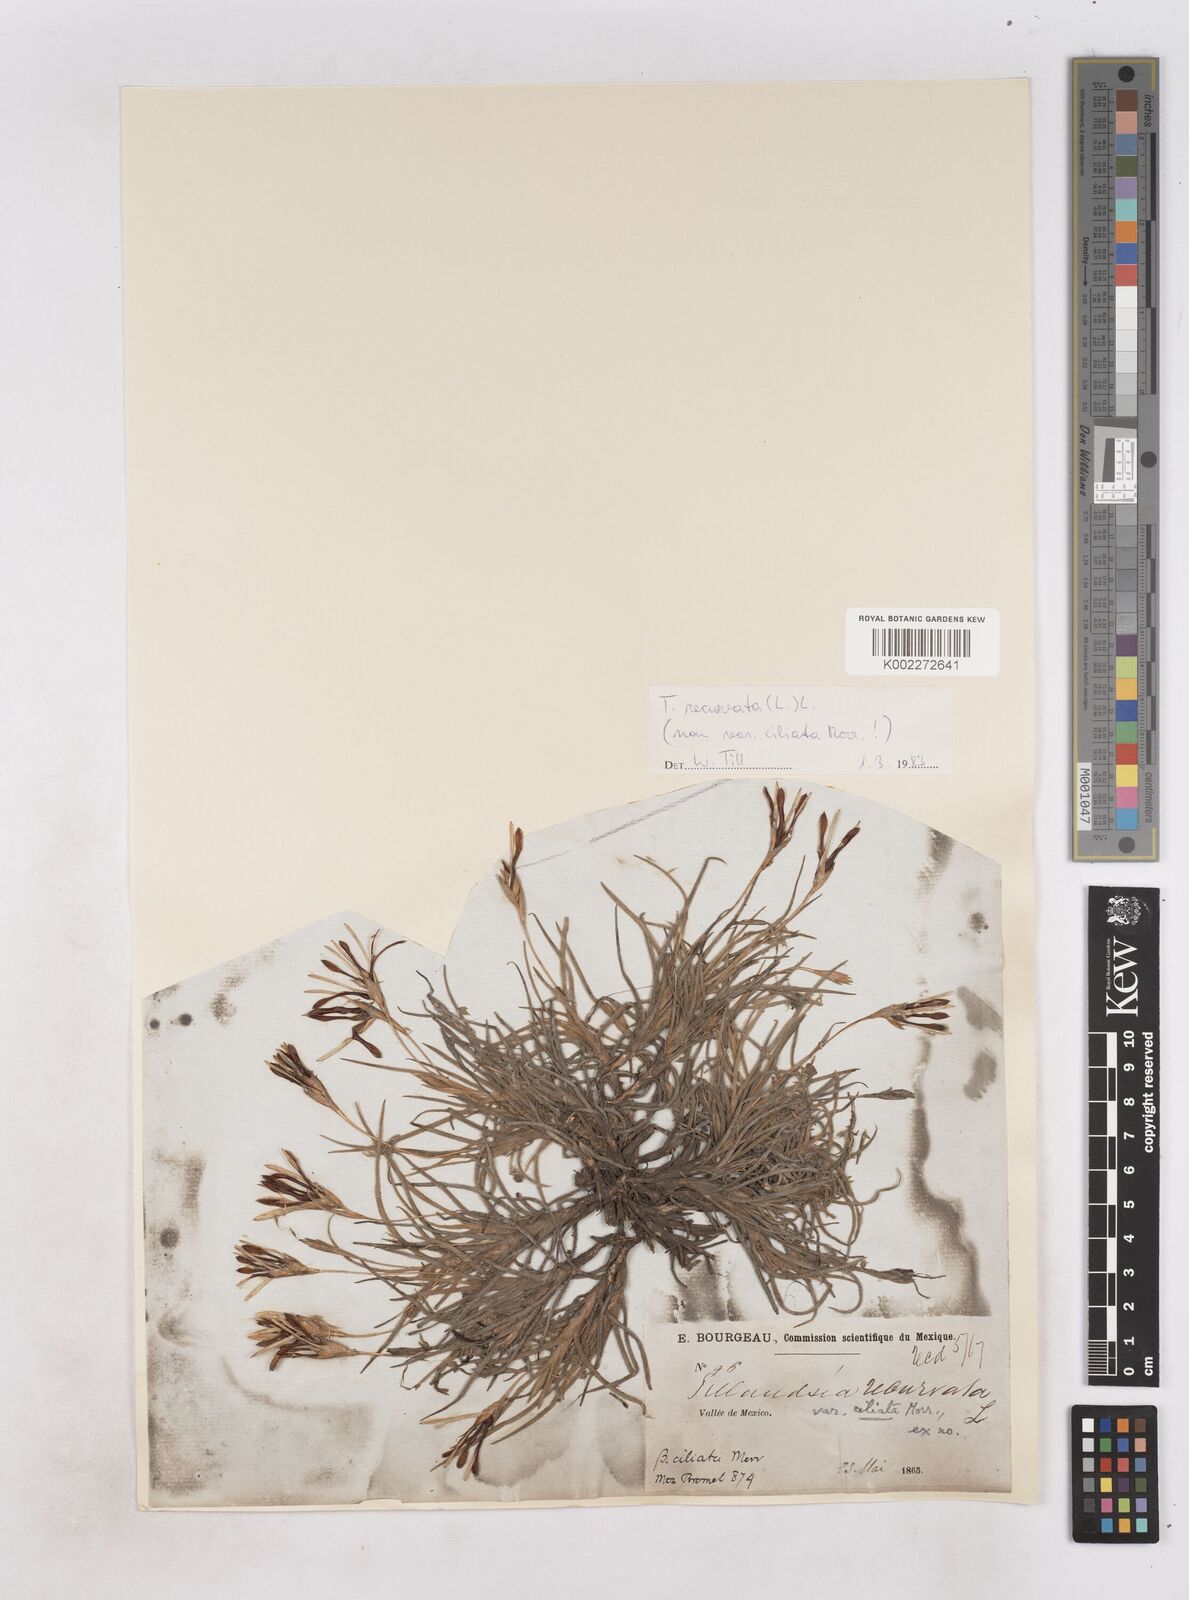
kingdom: Plantae
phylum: Tracheophyta
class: Liliopsida
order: Poales
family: Bromeliaceae
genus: Tillandsia
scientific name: Tillandsia recurvata
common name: Small ballmoss
